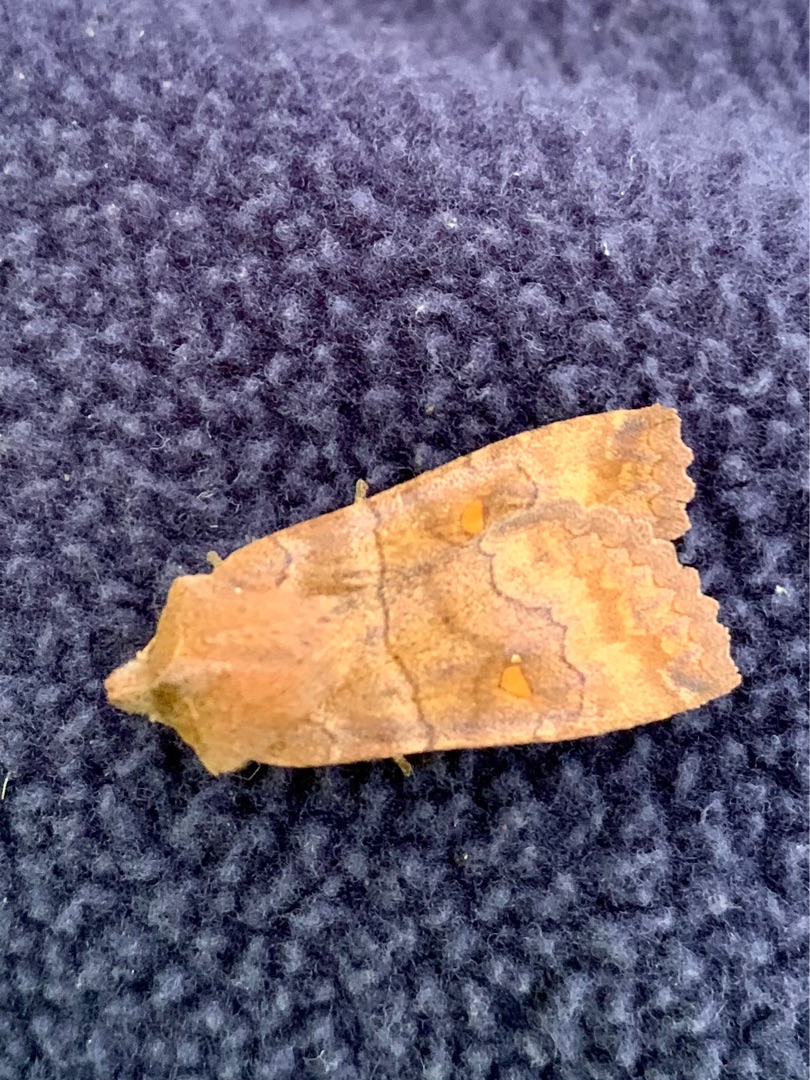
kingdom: Animalia
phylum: Arthropoda
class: Insecta
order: Lepidoptera
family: Noctuidae
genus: Eupsilia
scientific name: Eupsilia transversa
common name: Satellitugle
